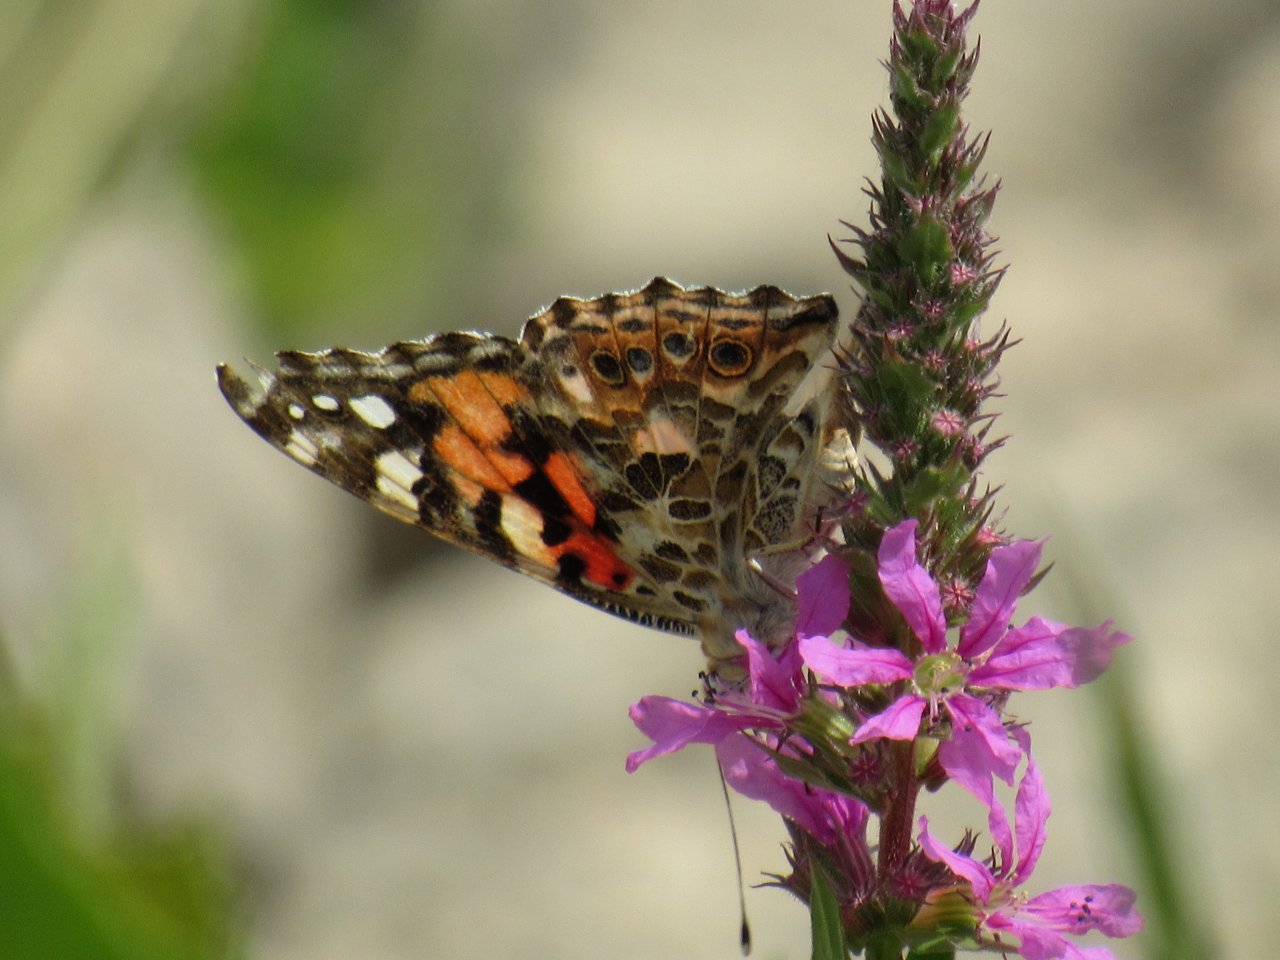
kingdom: Animalia
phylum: Arthropoda
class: Insecta
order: Lepidoptera
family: Nymphalidae
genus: Vanessa
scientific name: Vanessa cardui
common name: Painted Lady
